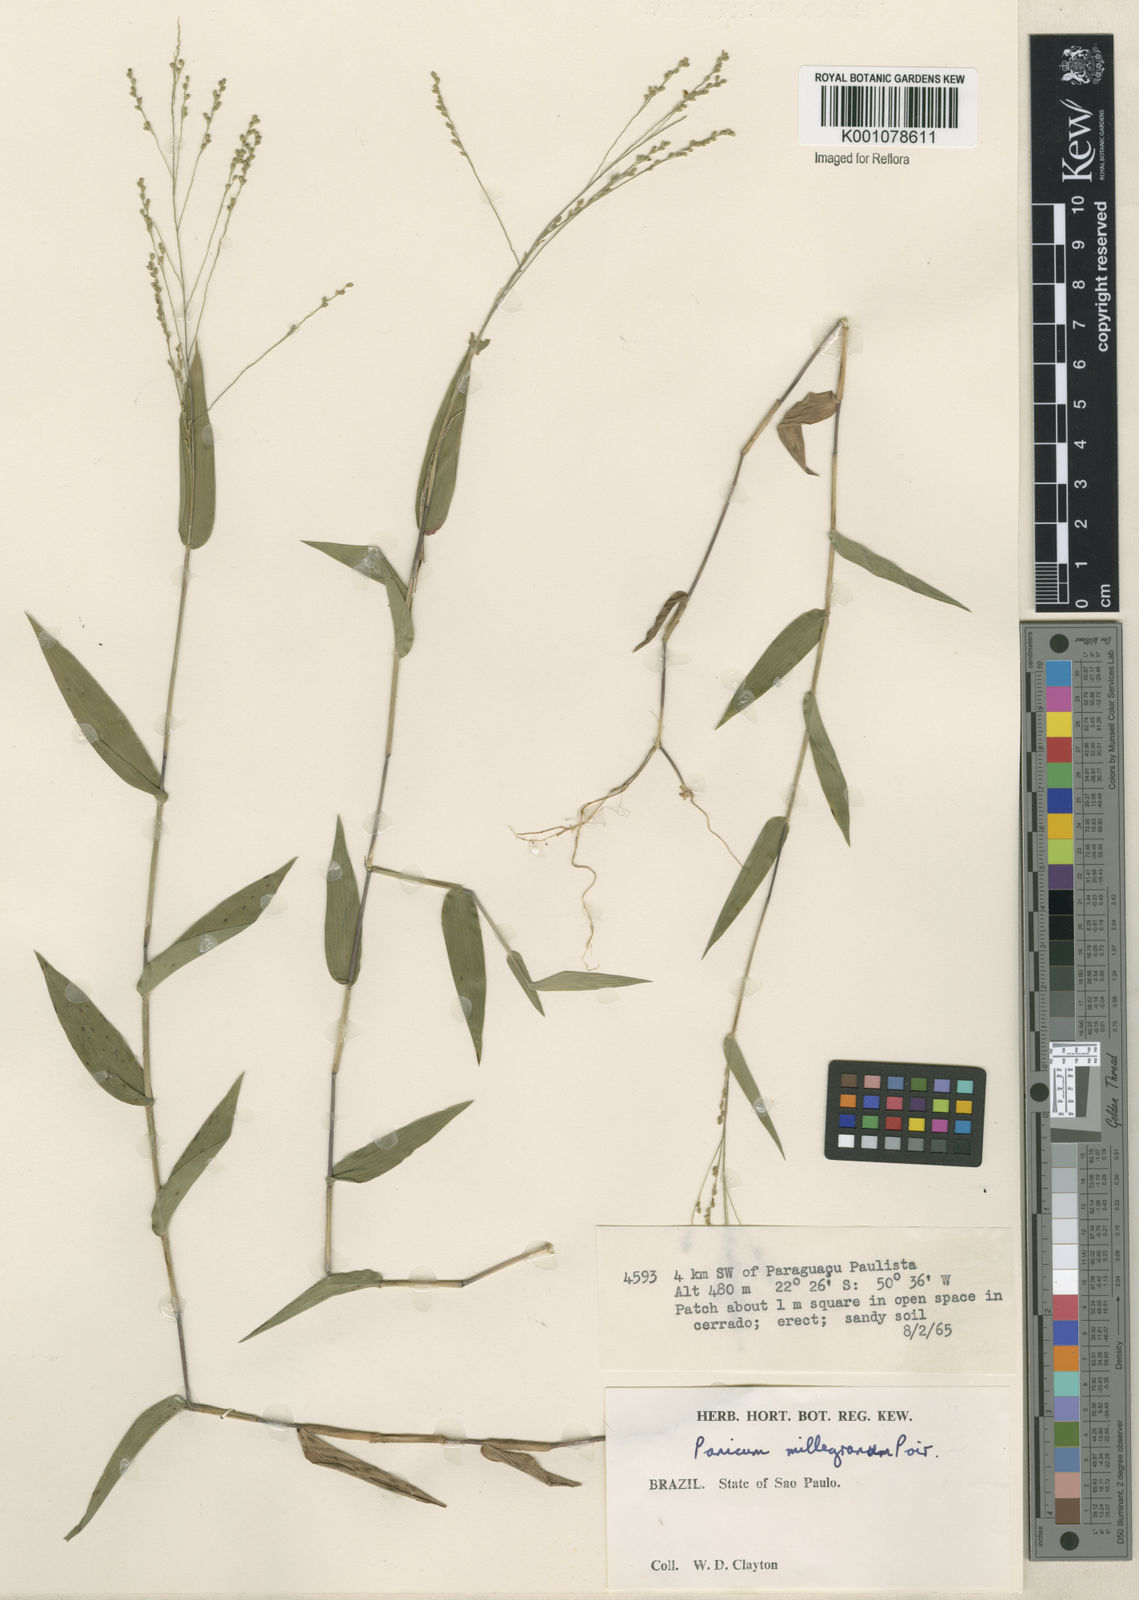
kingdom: Plantae
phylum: Tracheophyta
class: Liliopsida
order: Poales
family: Poaceae
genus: Panicum
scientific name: Panicum sellowii
